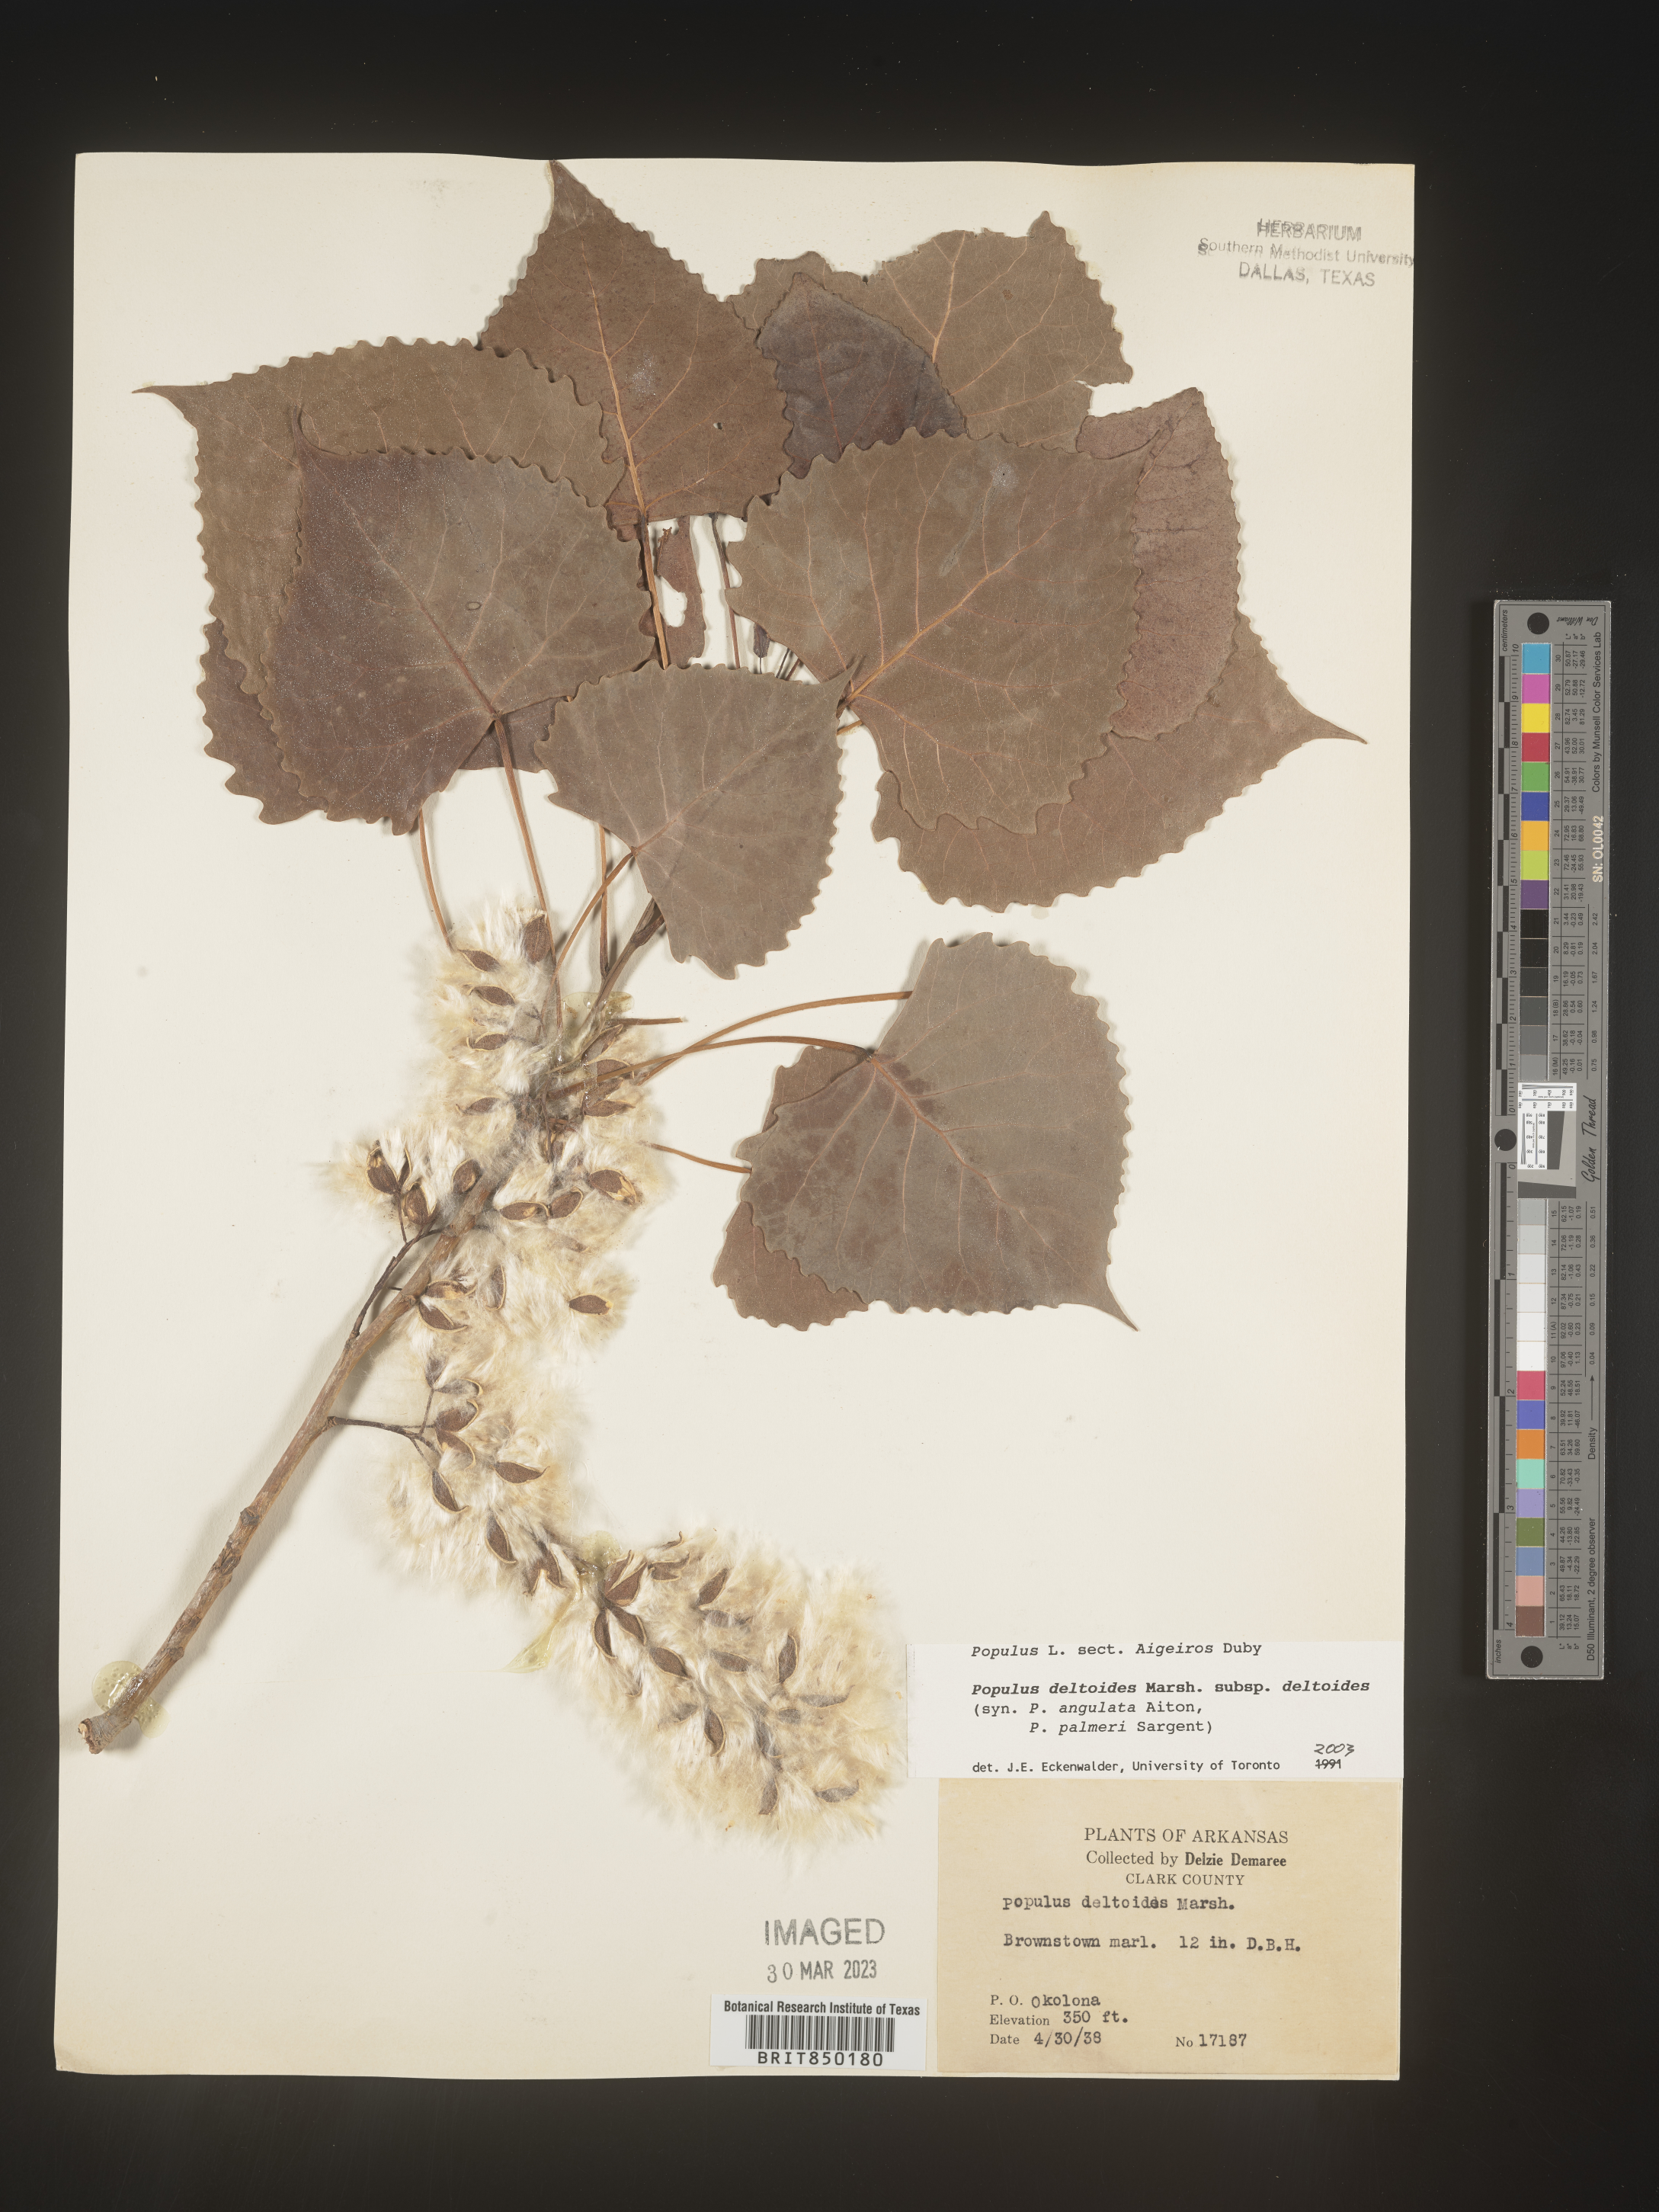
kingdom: Plantae
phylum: Tracheophyta
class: Magnoliopsida
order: Malpighiales
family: Salicaceae
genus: Populus
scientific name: Populus deltoides
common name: Eastern cottonwood
